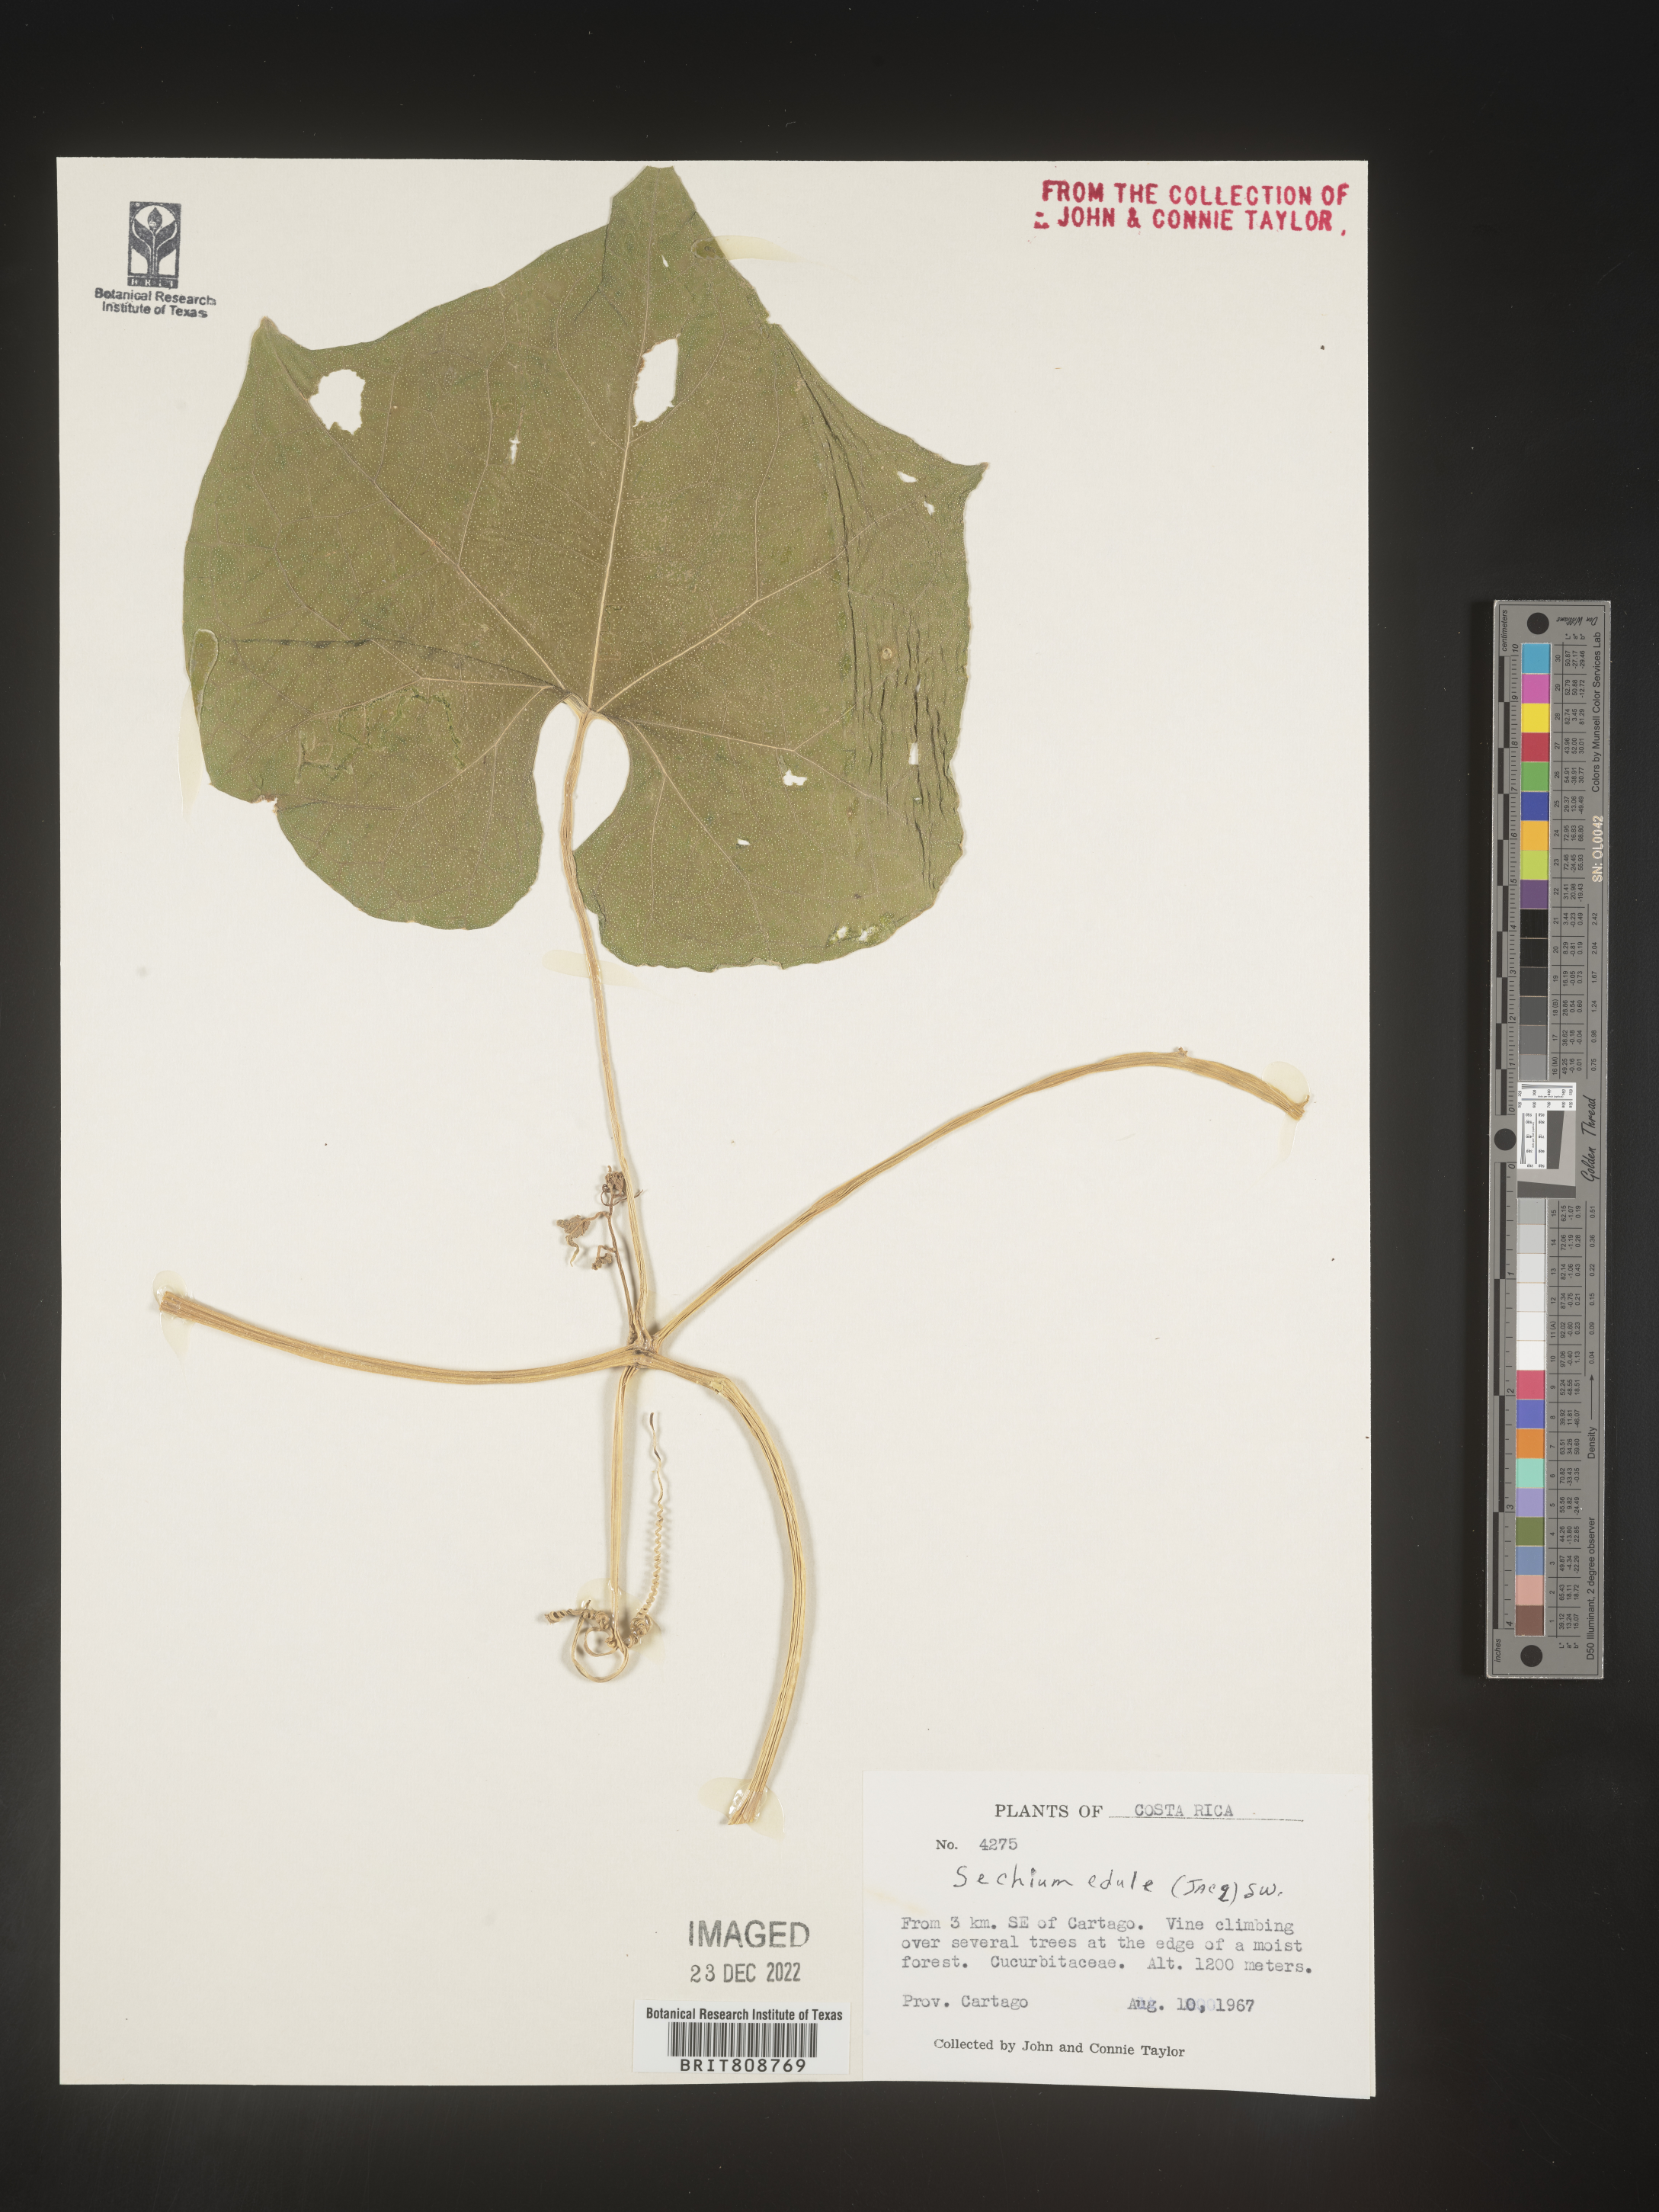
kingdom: Plantae
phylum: Tracheophyta
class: Magnoliopsida
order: Cucurbitales
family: Cucurbitaceae
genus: Sechium
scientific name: Sechium
